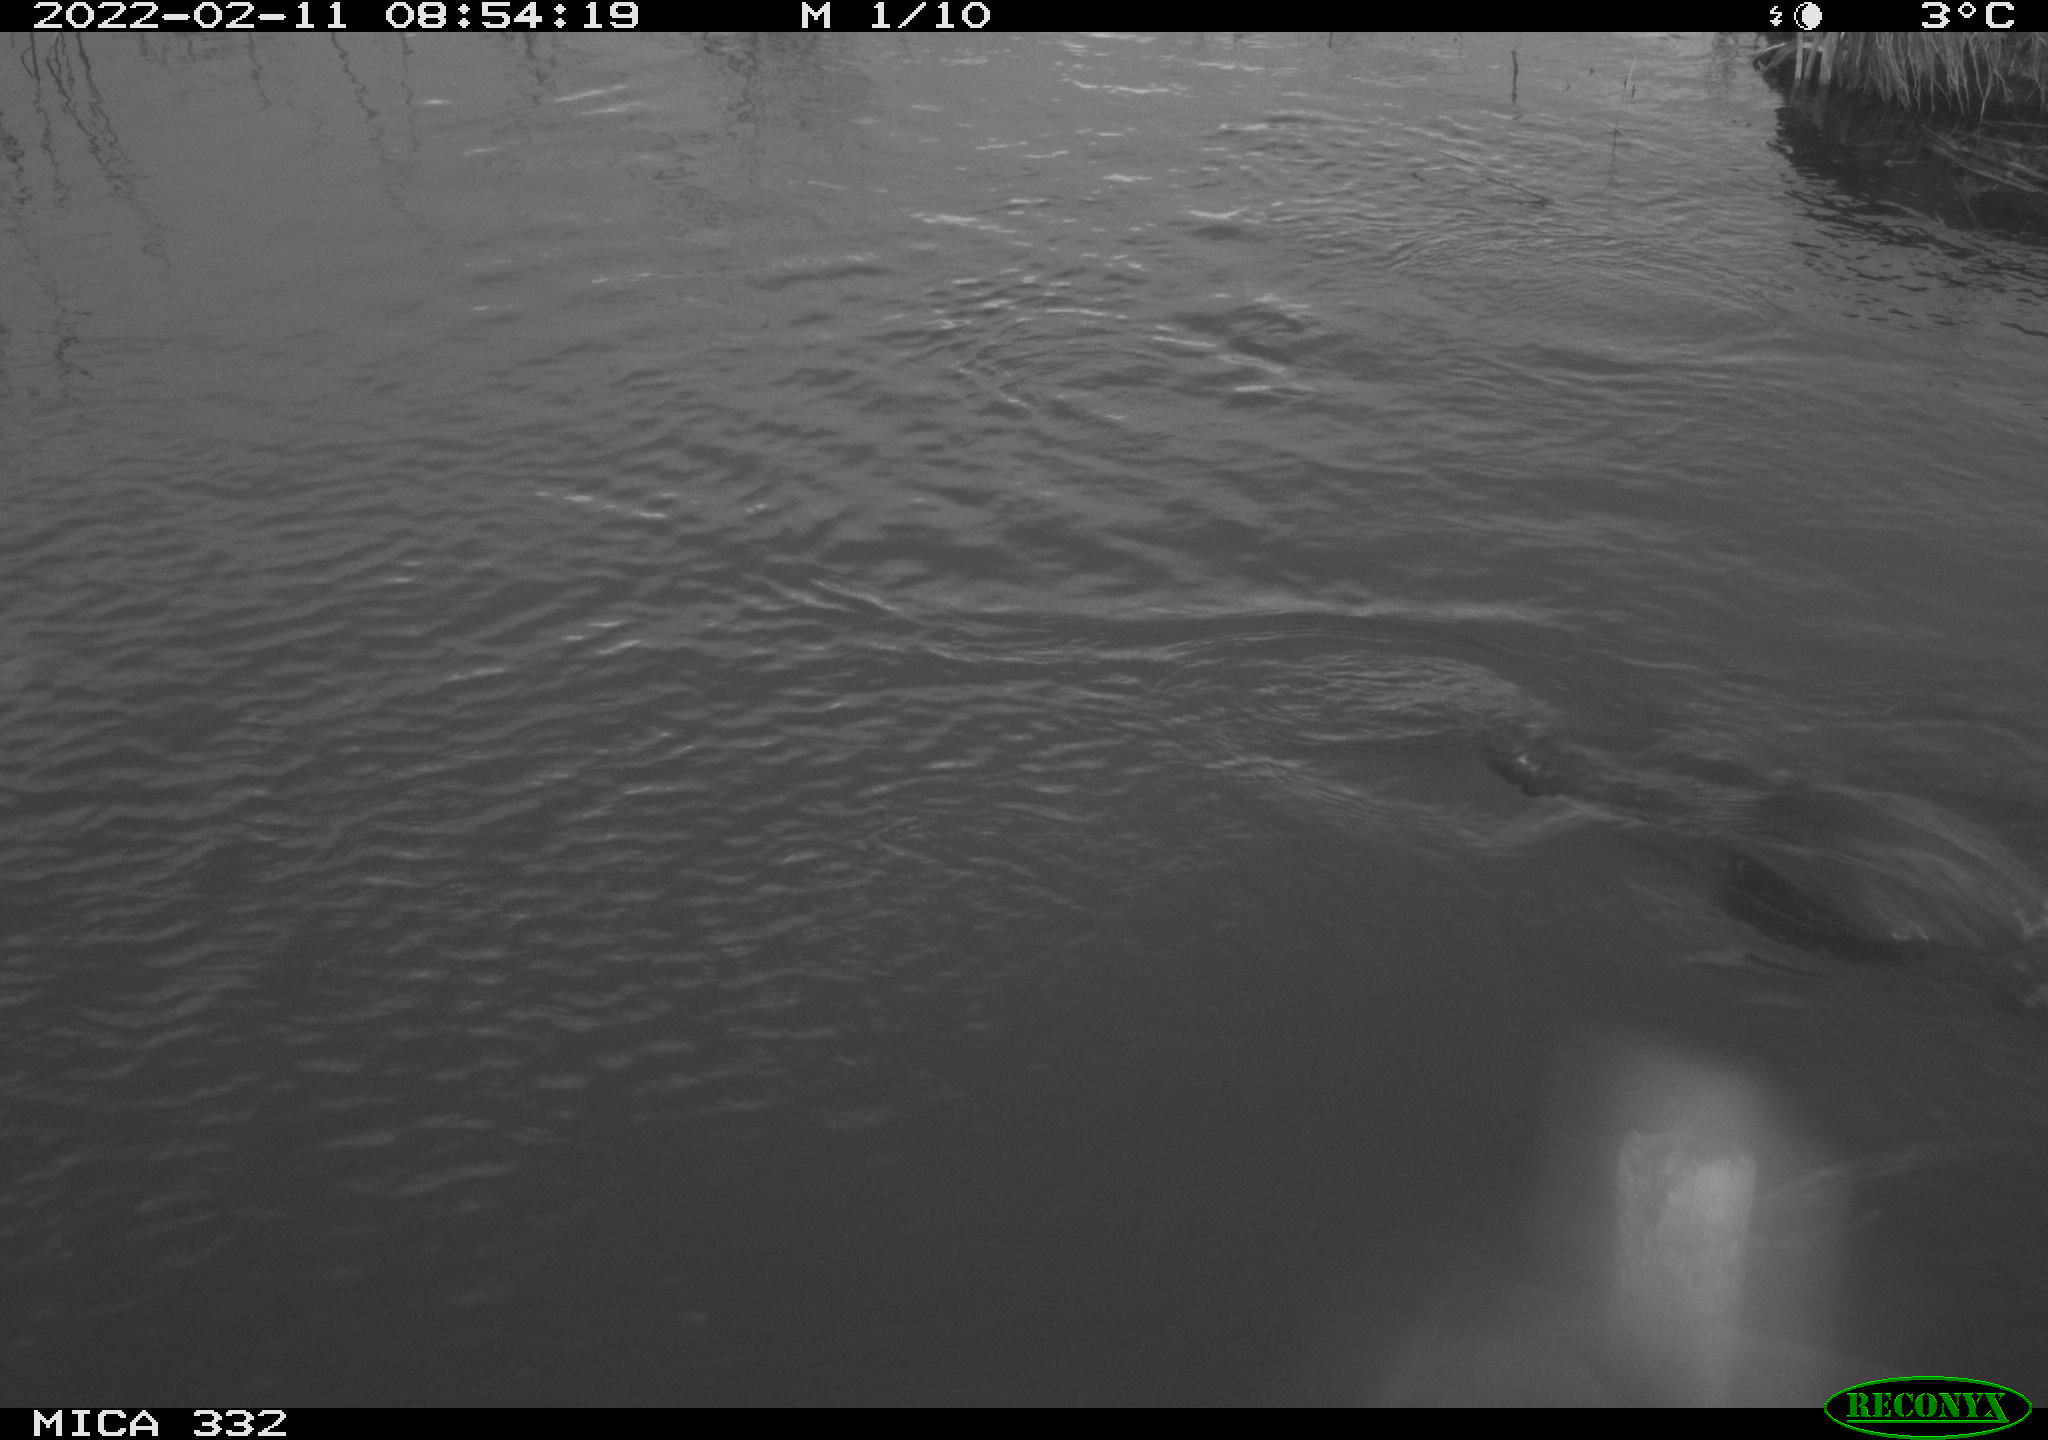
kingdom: Animalia
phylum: Chordata
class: Aves
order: Suliformes
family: Phalacrocoracidae
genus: Phalacrocorax
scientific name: Phalacrocorax carbo
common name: Great cormorant
